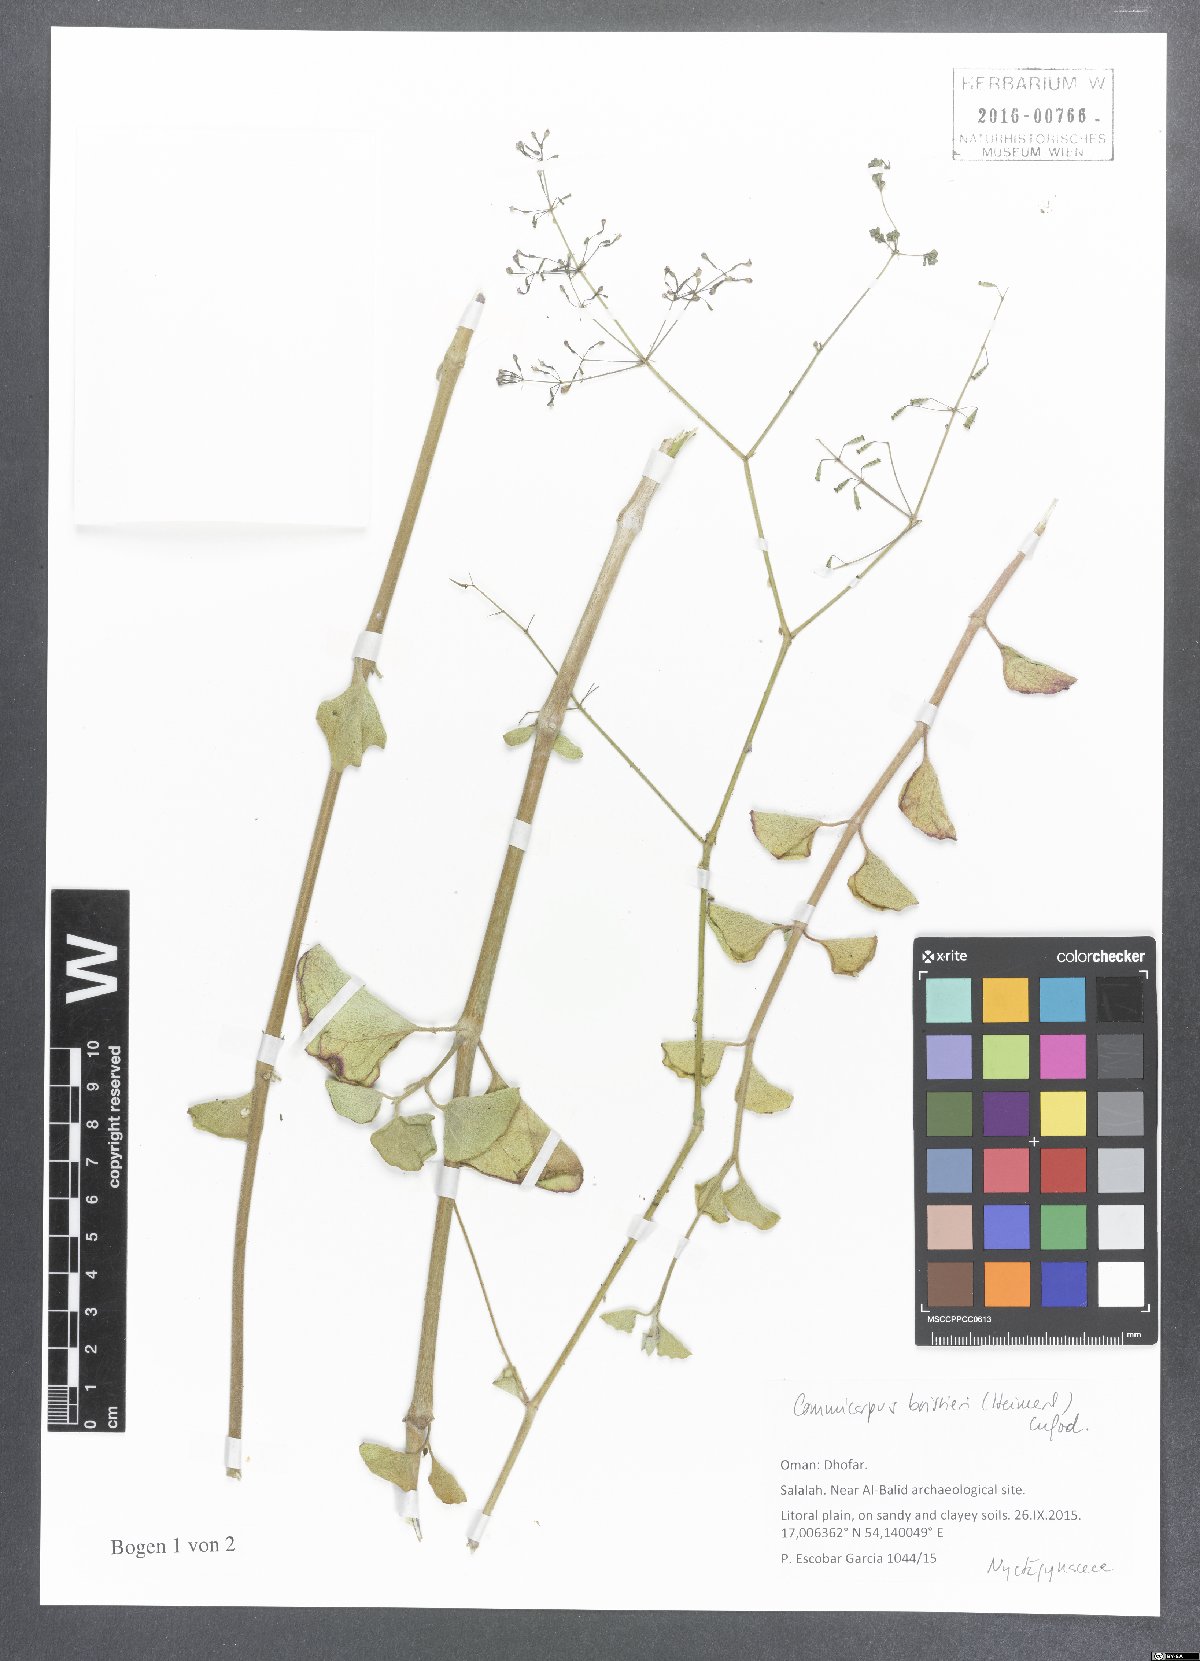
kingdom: Plantae
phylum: Tracheophyta
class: Magnoliopsida
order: Caryophyllales
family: Nyctaginaceae
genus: Commicarpus
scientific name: Commicarpus boissieri
